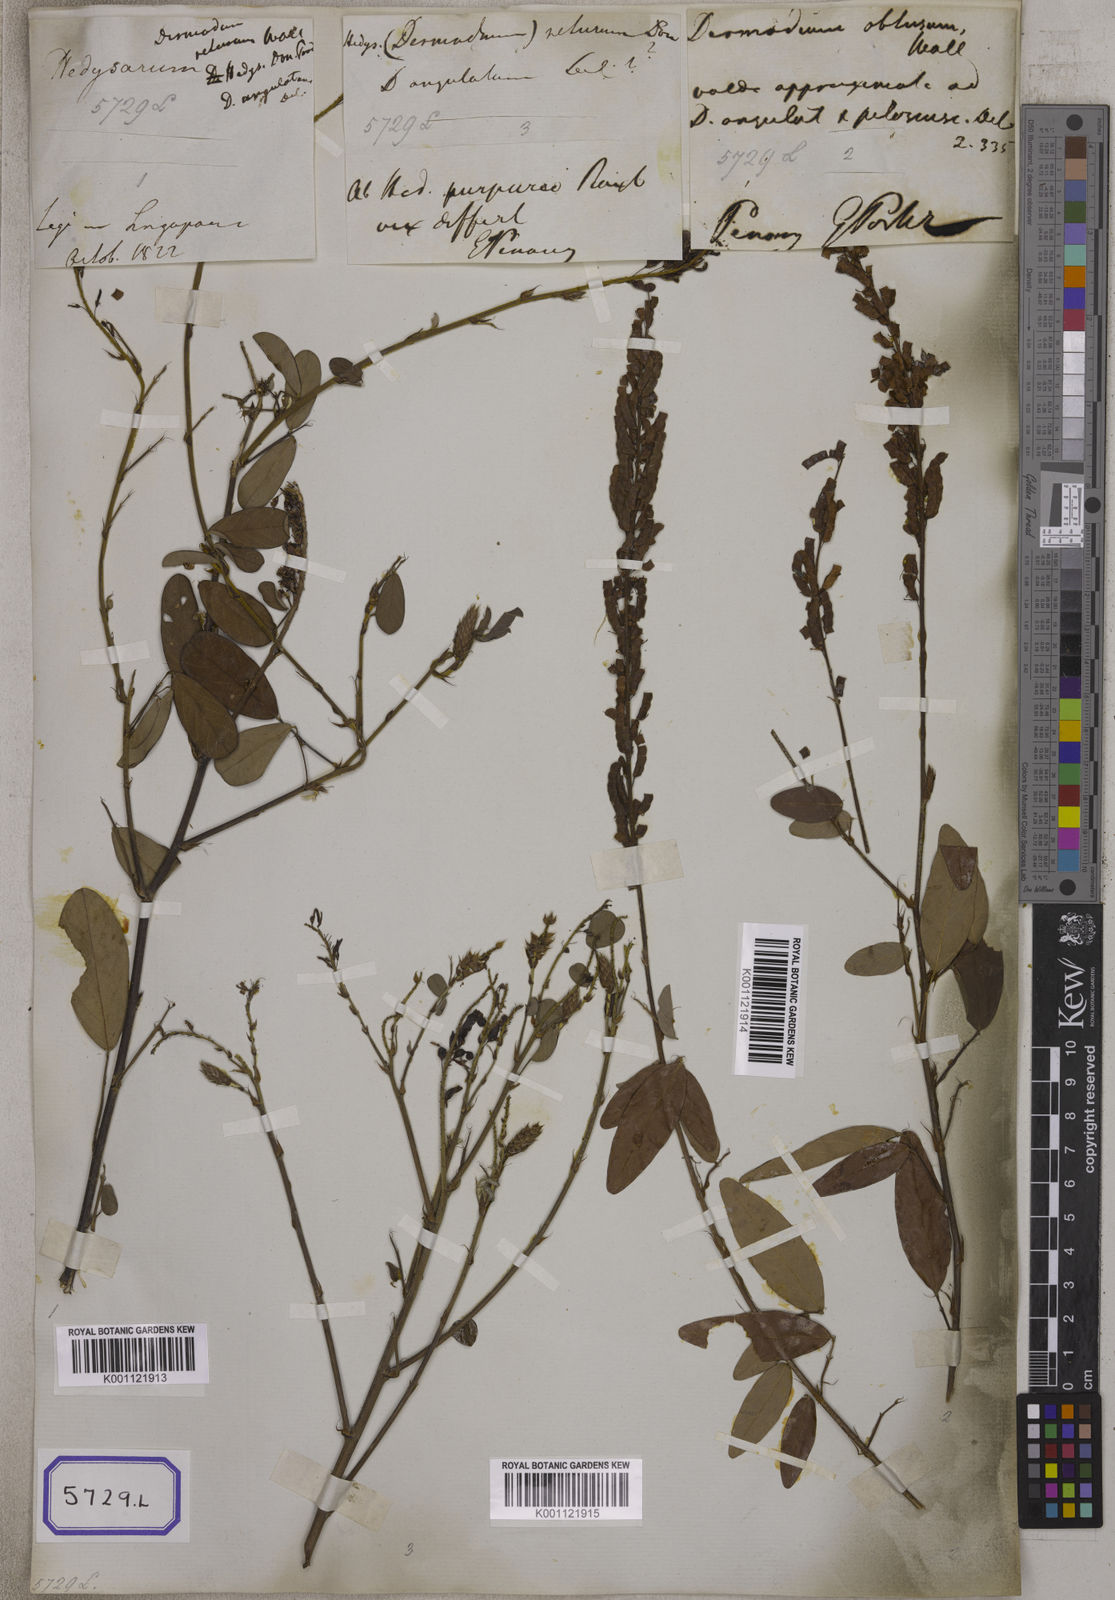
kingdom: Plantae
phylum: Tracheophyta
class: Magnoliopsida
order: Fabales
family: Fabaceae
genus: Desmodium
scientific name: Desmodium
